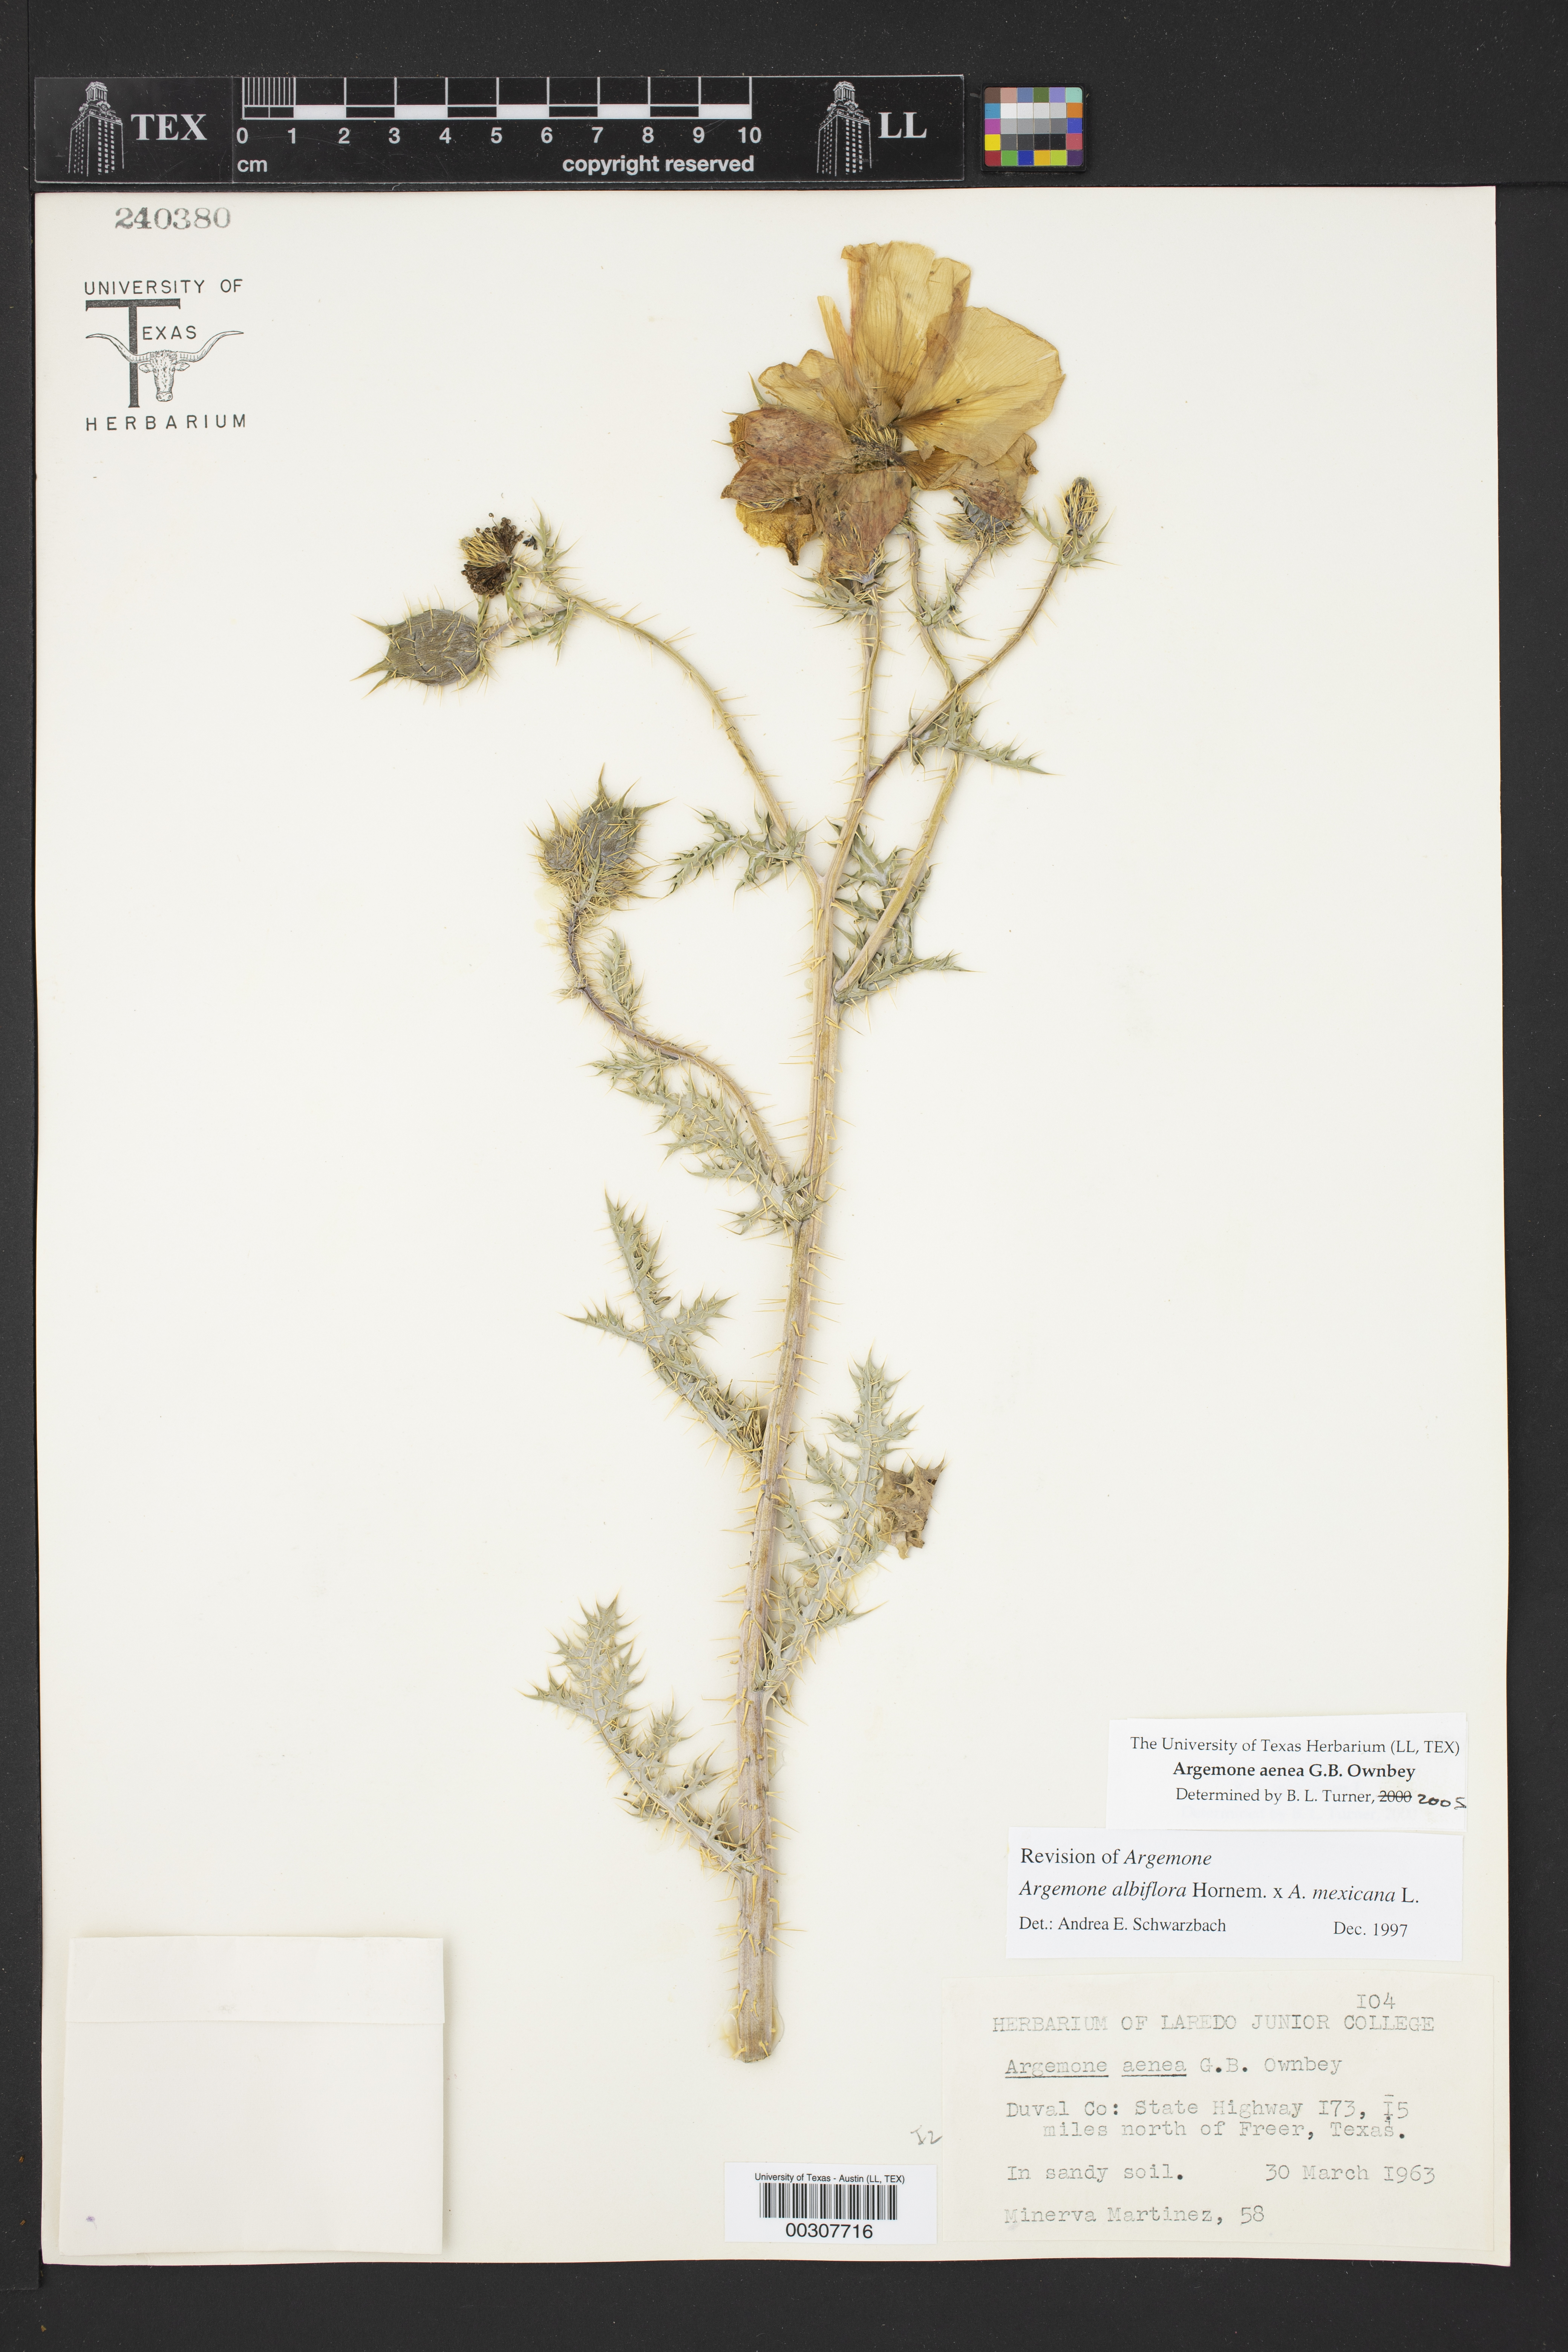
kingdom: Plantae
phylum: Tracheophyta
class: Magnoliopsida
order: Ranunculales
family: Papaveraceae
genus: Argemone
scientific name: Argemone aenea
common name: Golden prickly-poppy
